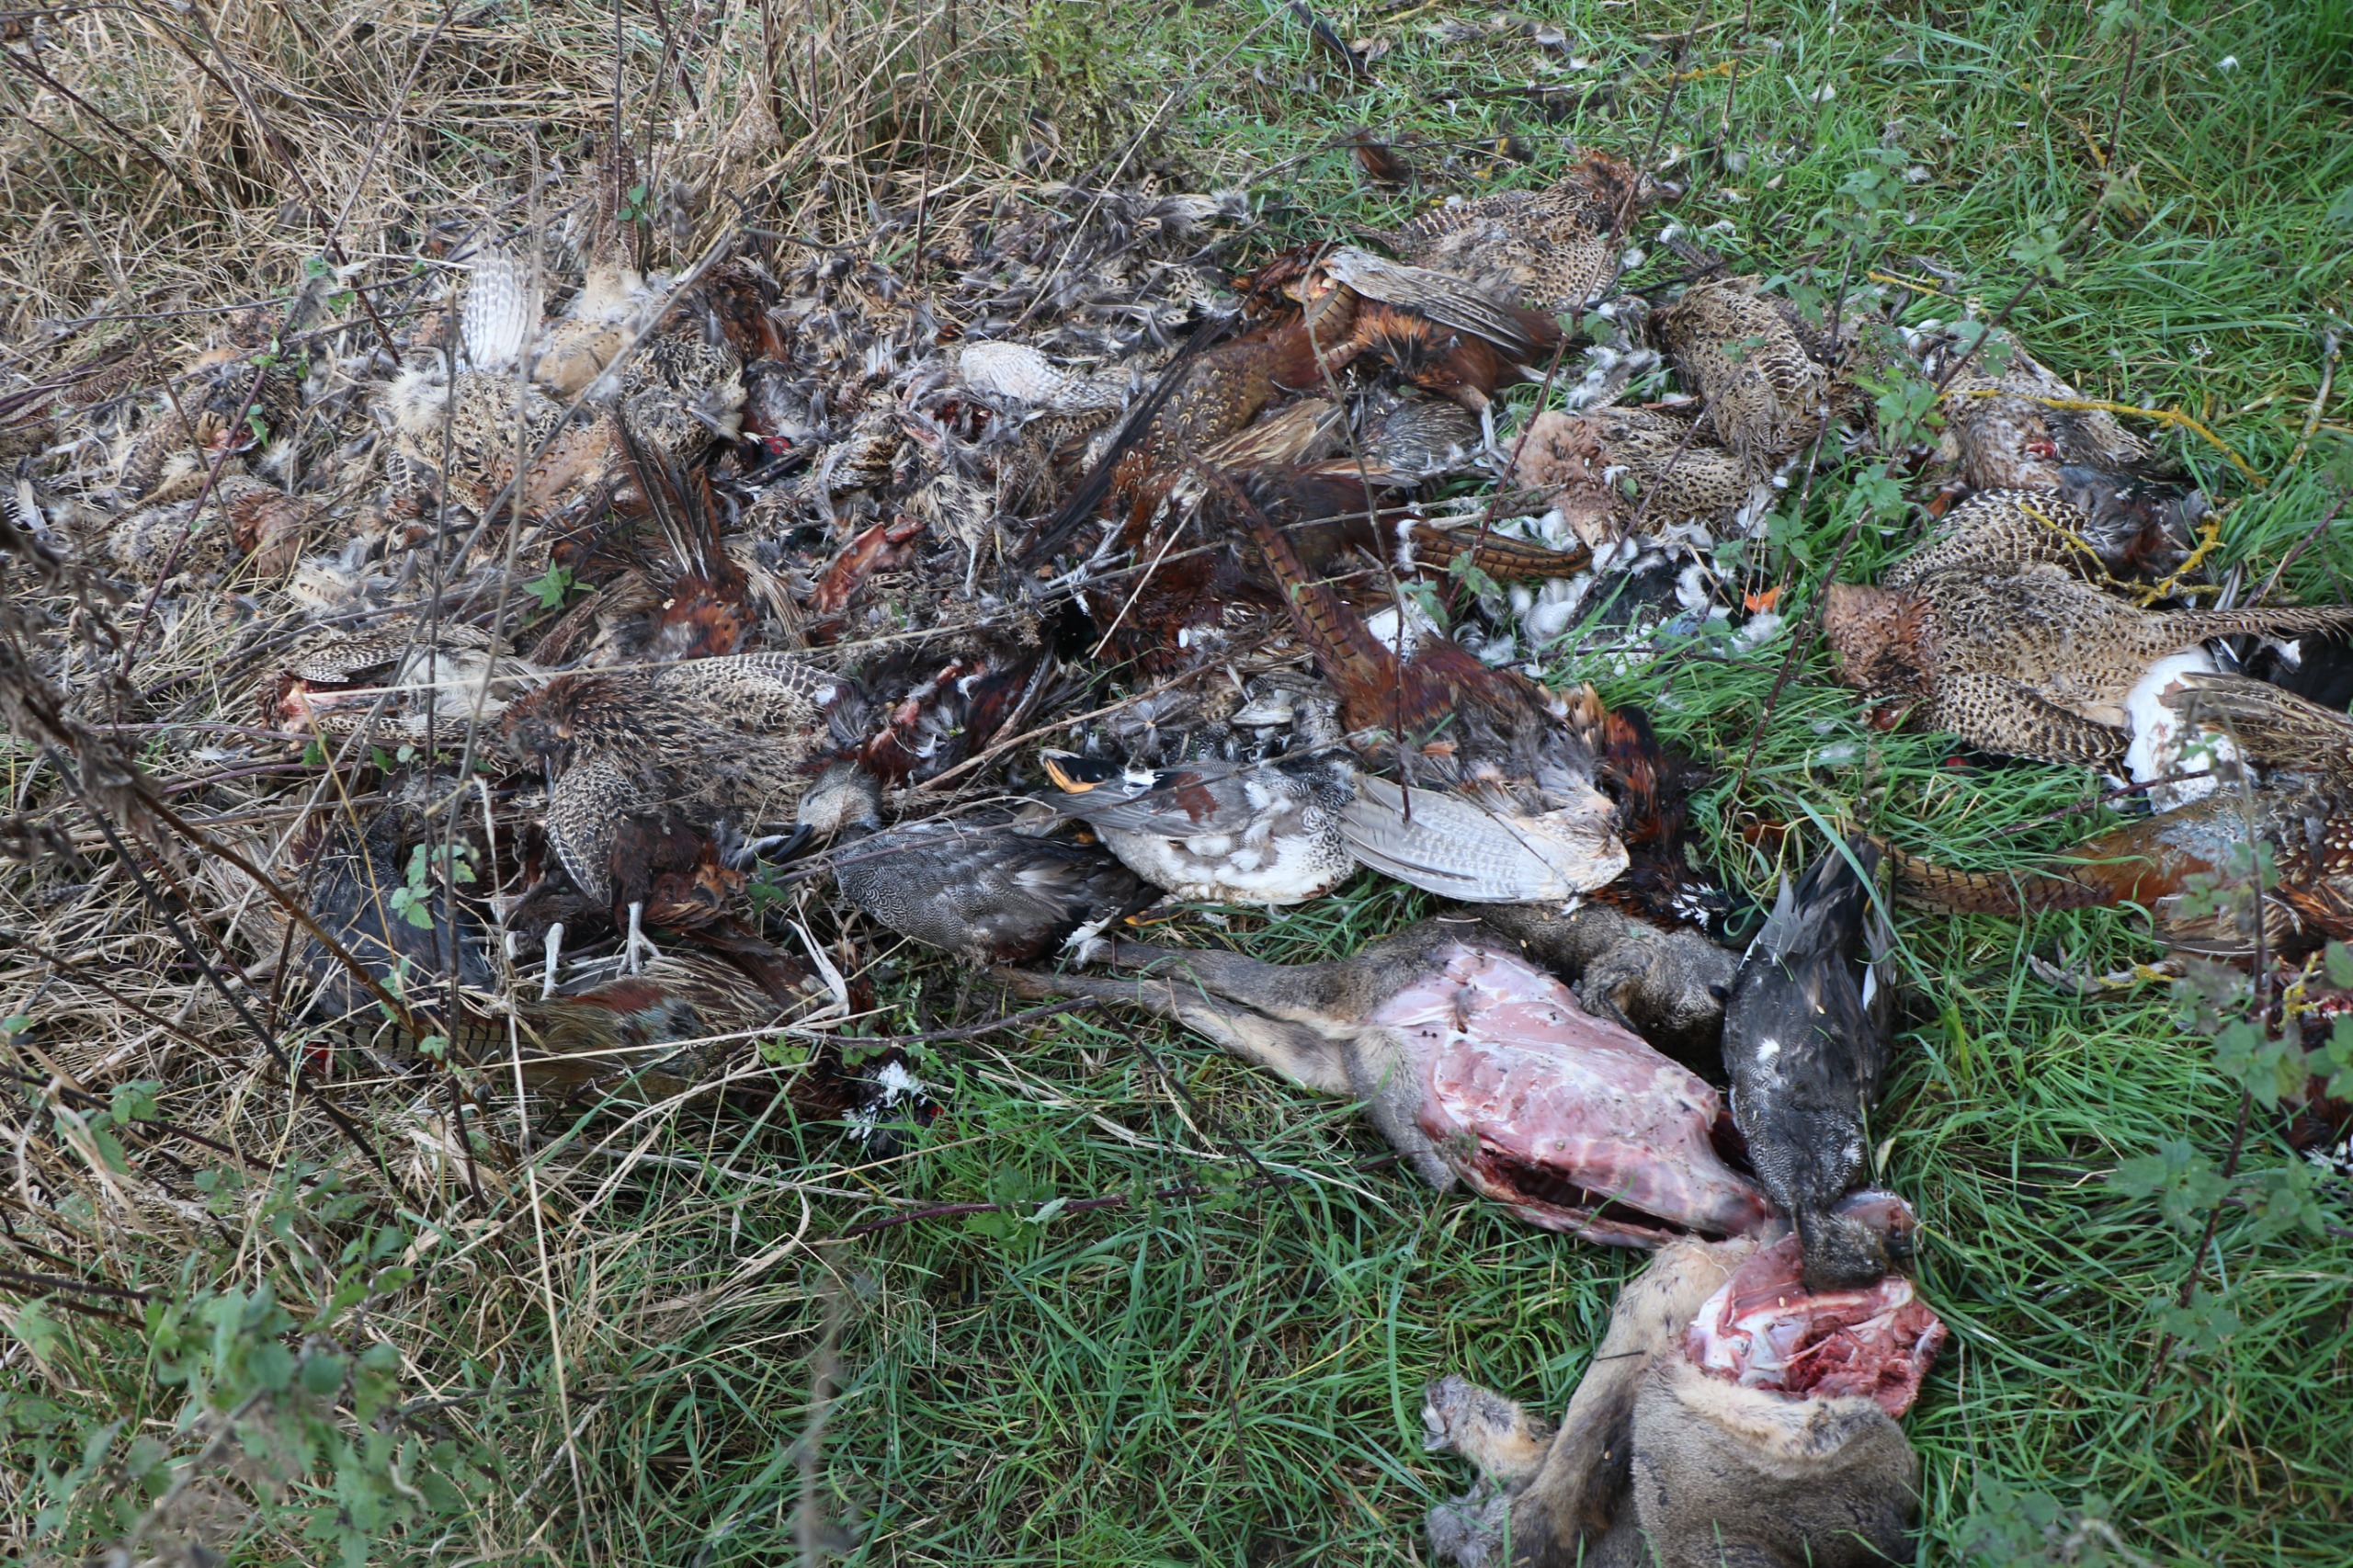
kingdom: Animalia
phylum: Chordata
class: Aves
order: Anseriformes
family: Anatidae
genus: Mareca
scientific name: Mareca strepera
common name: Knarand
